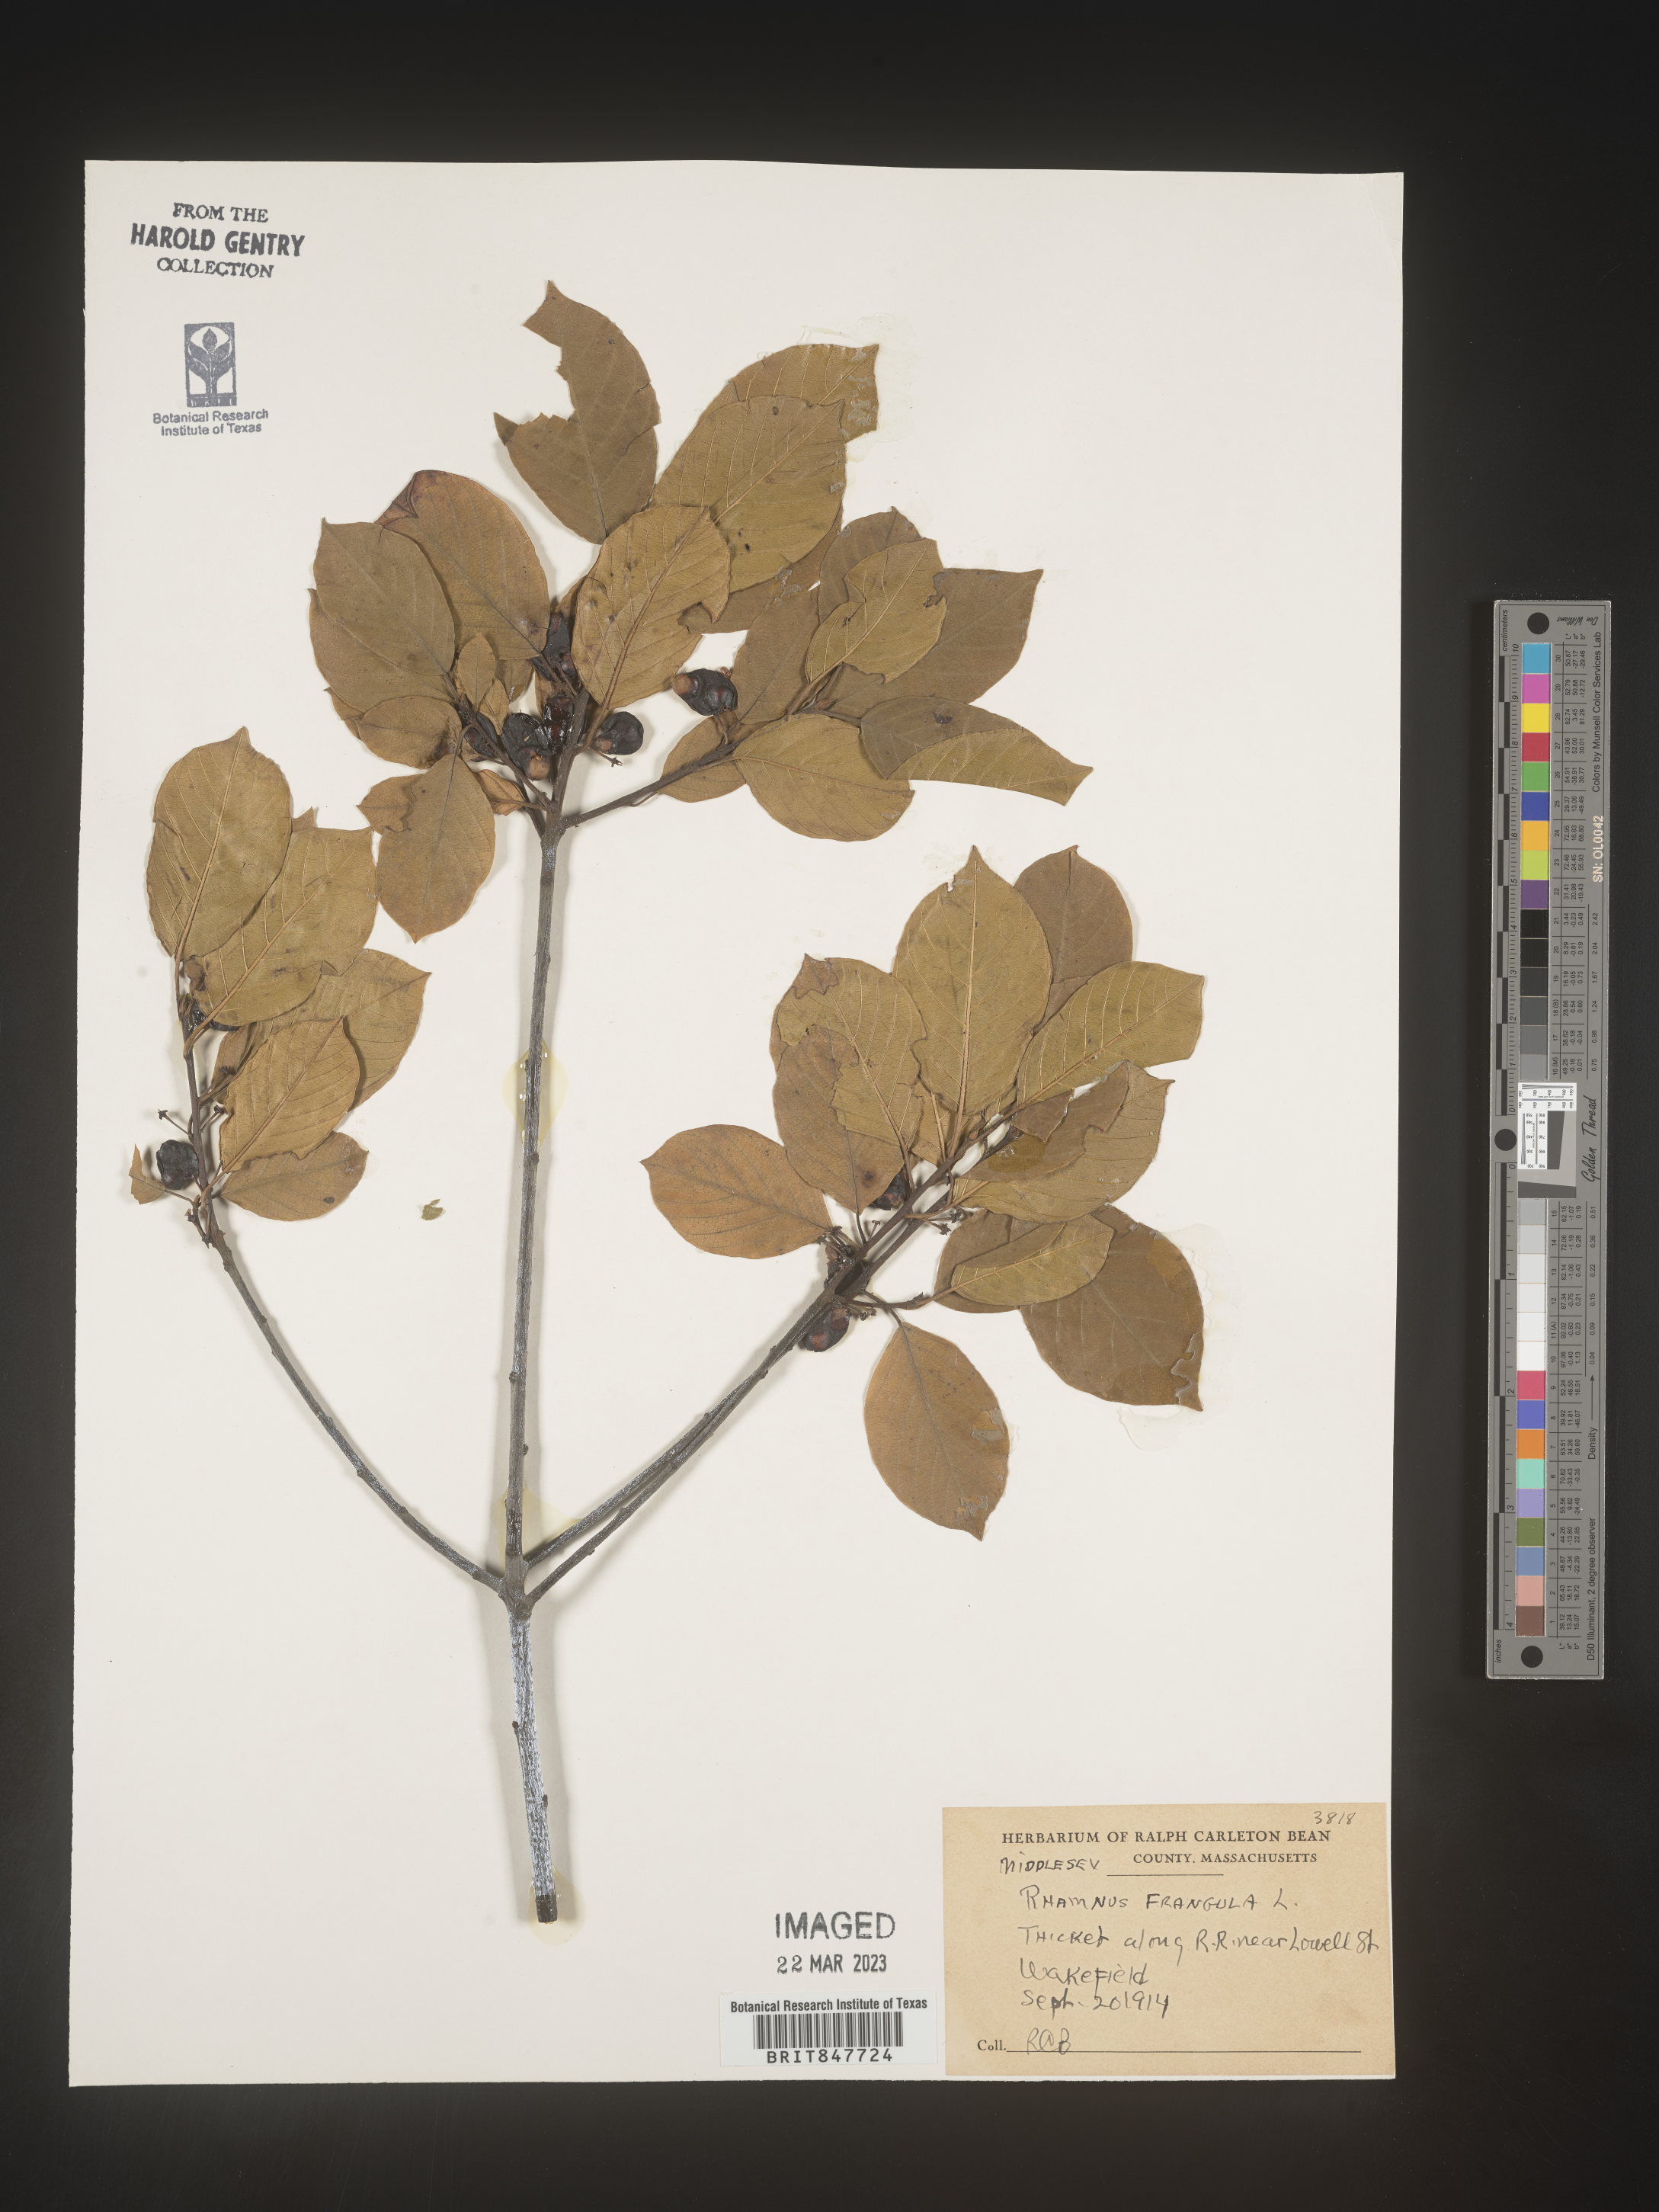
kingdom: Plantae
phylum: Tracheophyta
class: Magnoliopsida
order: Rosales
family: Rhamnaceae
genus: Frangula
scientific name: Frangula alnus
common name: Alder buckthorn
